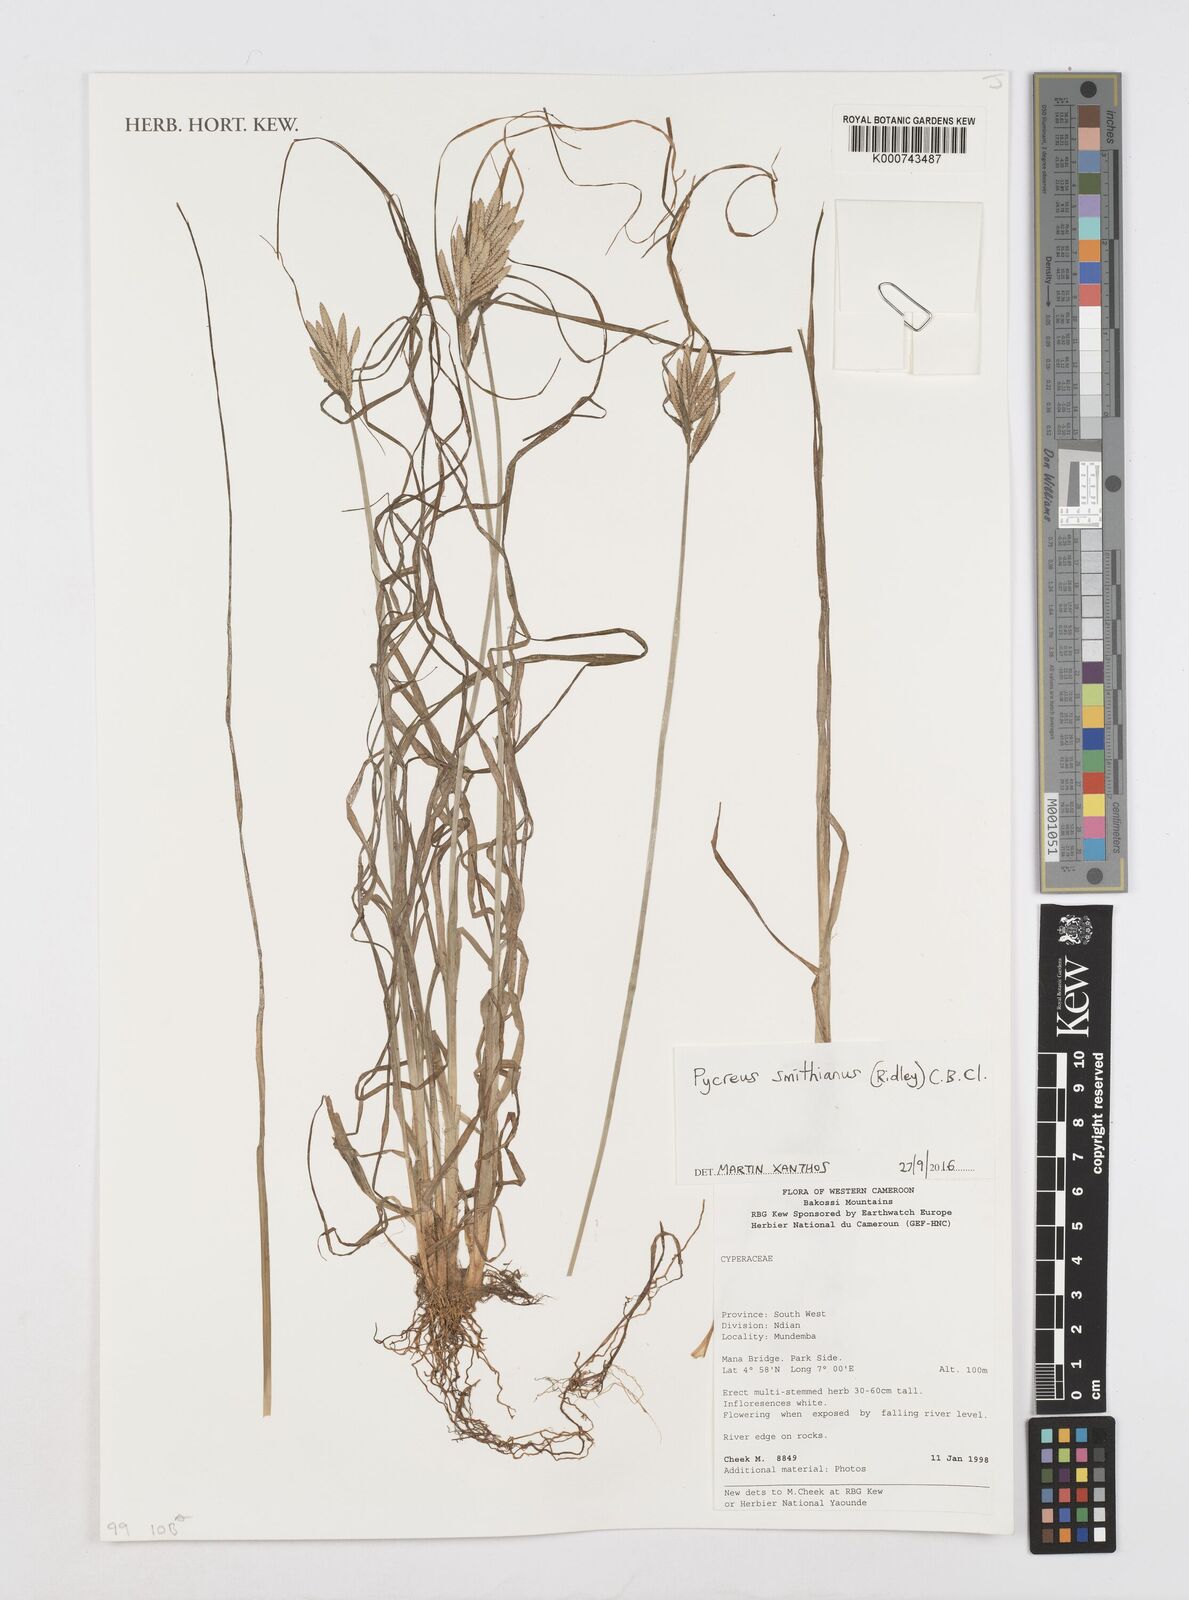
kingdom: Plantae
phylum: Tracheophyta
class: Liliopsida
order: Poales
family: Cyperaceae
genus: Cyperus
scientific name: Cyperus smithianus
